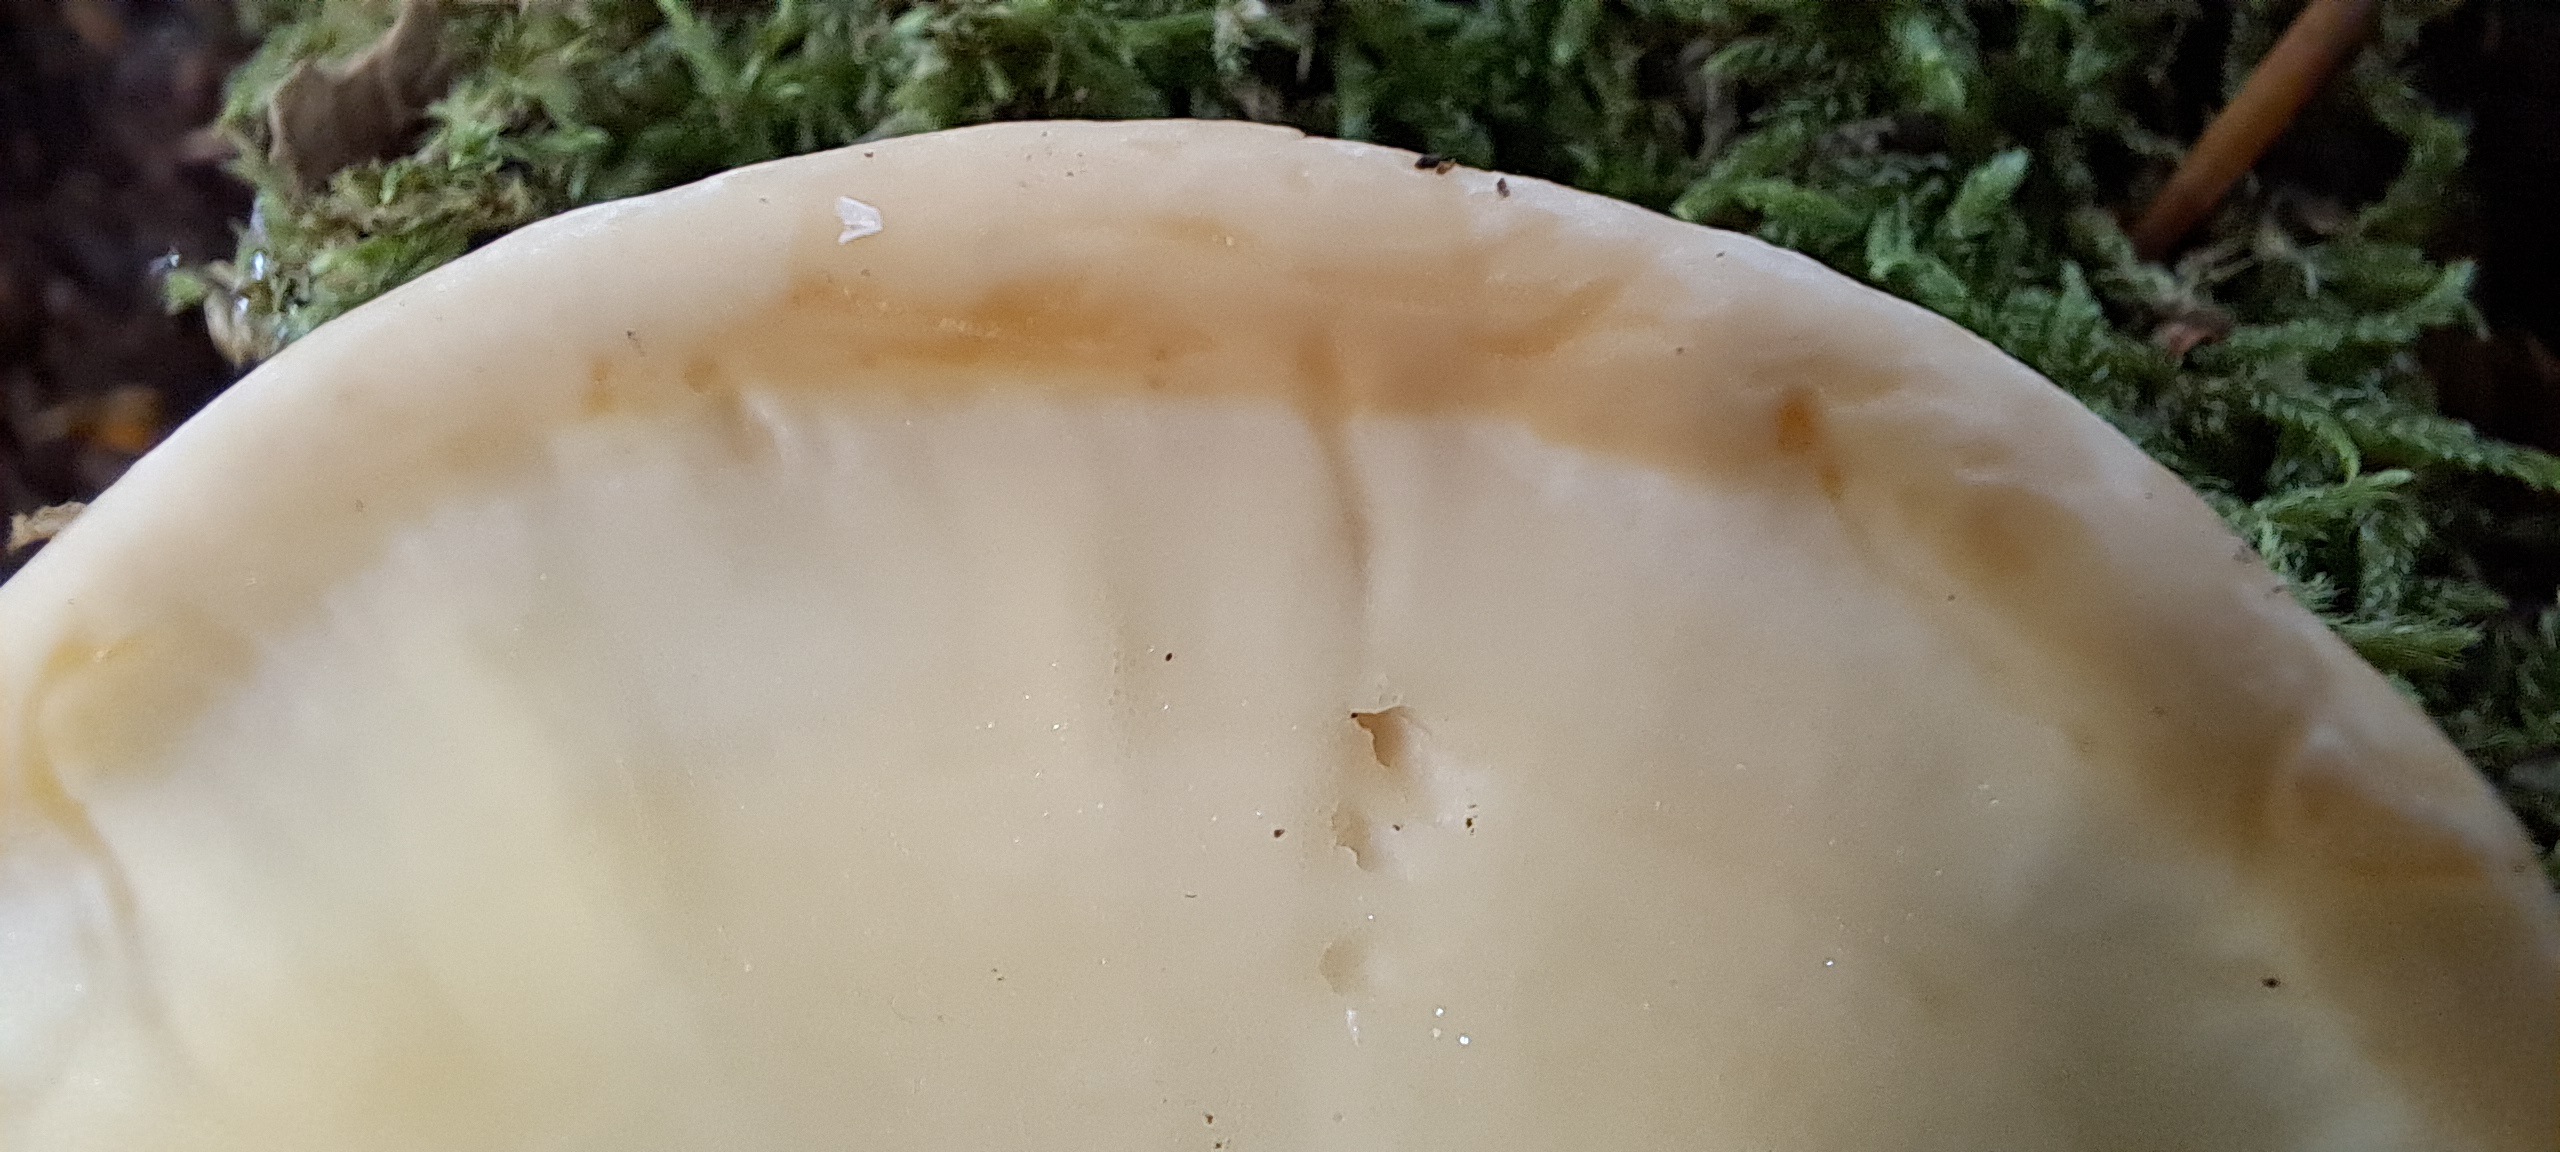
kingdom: Fungi
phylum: Basidiomycota
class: Agaricomycetes
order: Polyporales
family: Meripilaceae
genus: Meripilus
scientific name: Meripilus giganteus
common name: kæmpeporesvamp
